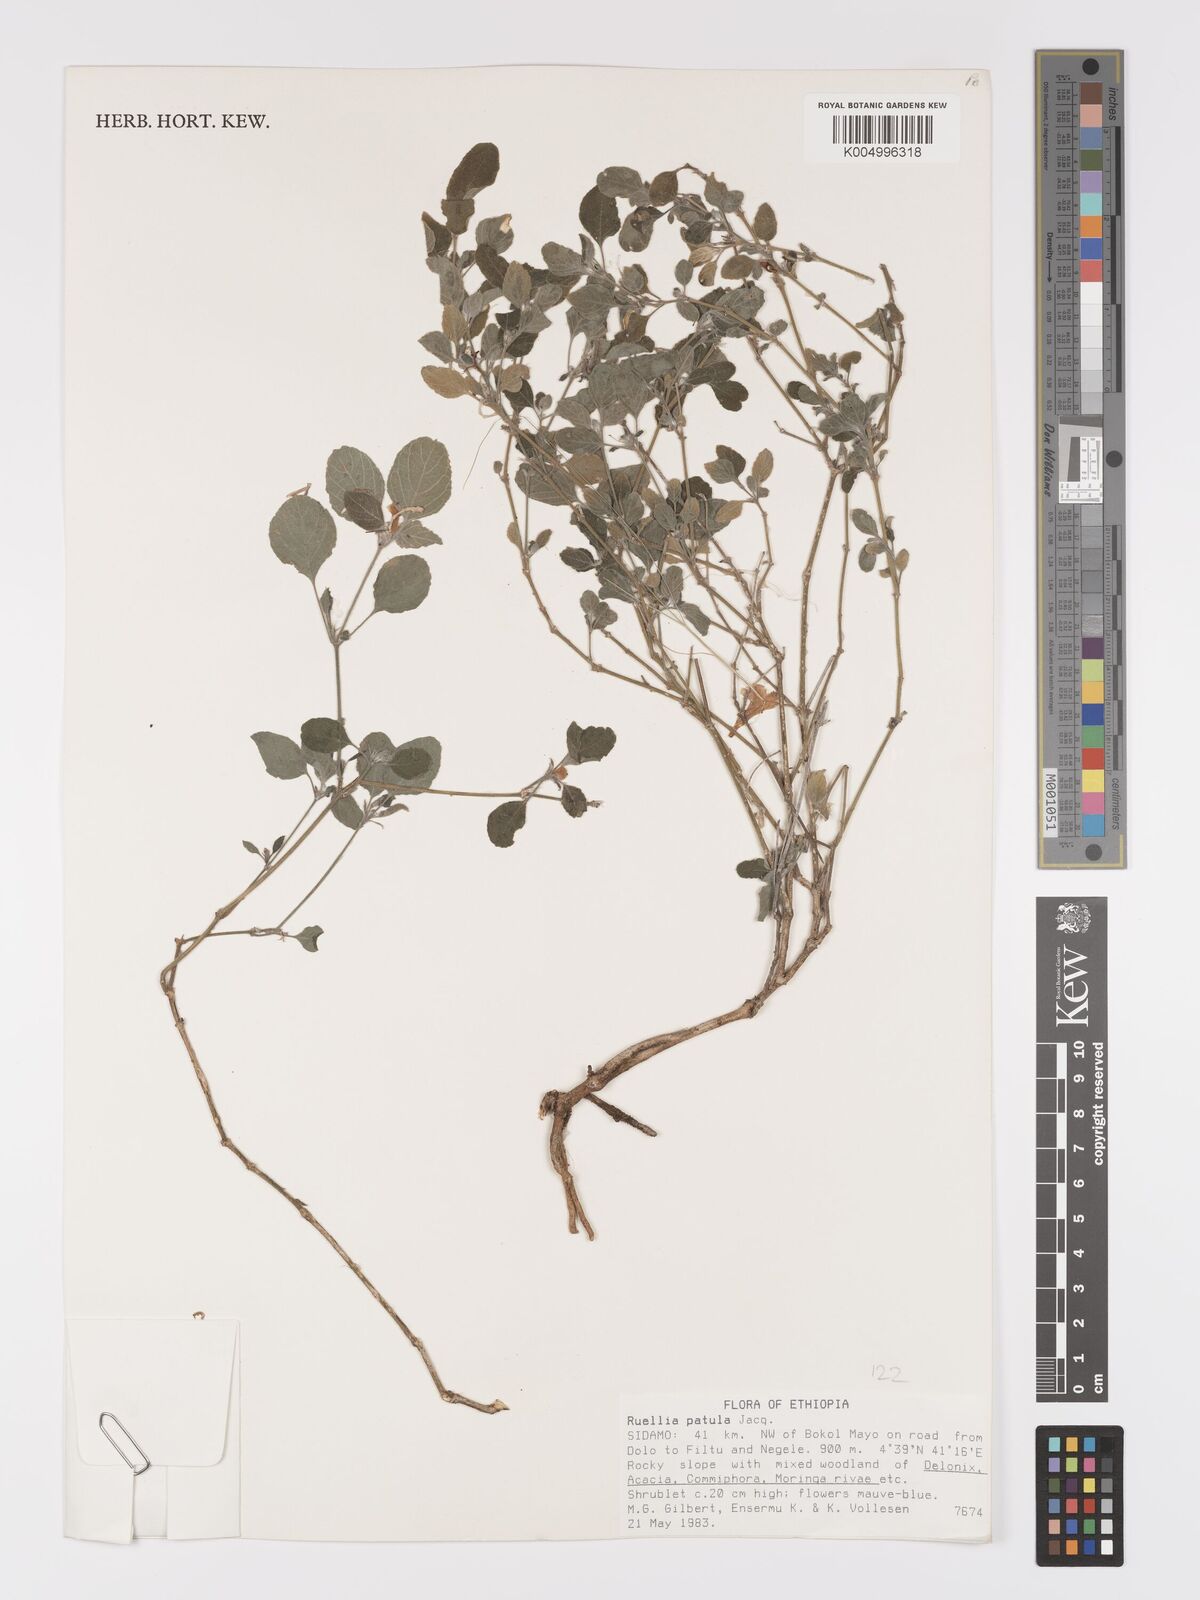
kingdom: Plantae
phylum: Tracheophyta
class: Magnoliopsida
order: Lamiales
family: Acanthaceae
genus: Ruellia
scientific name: Ruellia patula
